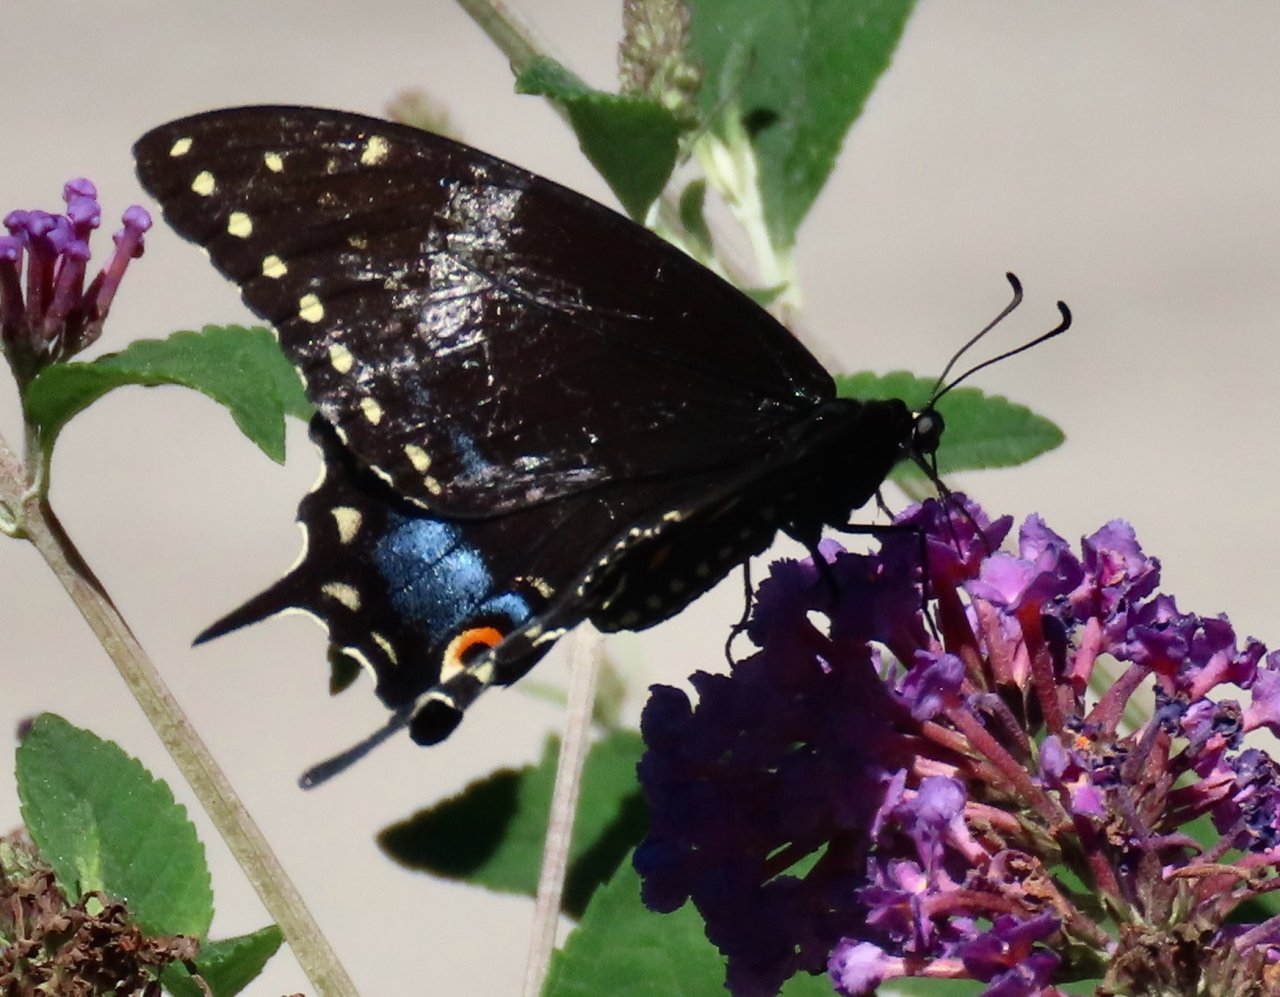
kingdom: Animalia
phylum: Arthropoda
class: Insecta
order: Lepidoptera
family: Papilionidae
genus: Papilio
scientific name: Papilio polyxenes
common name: Black Swallowtail
